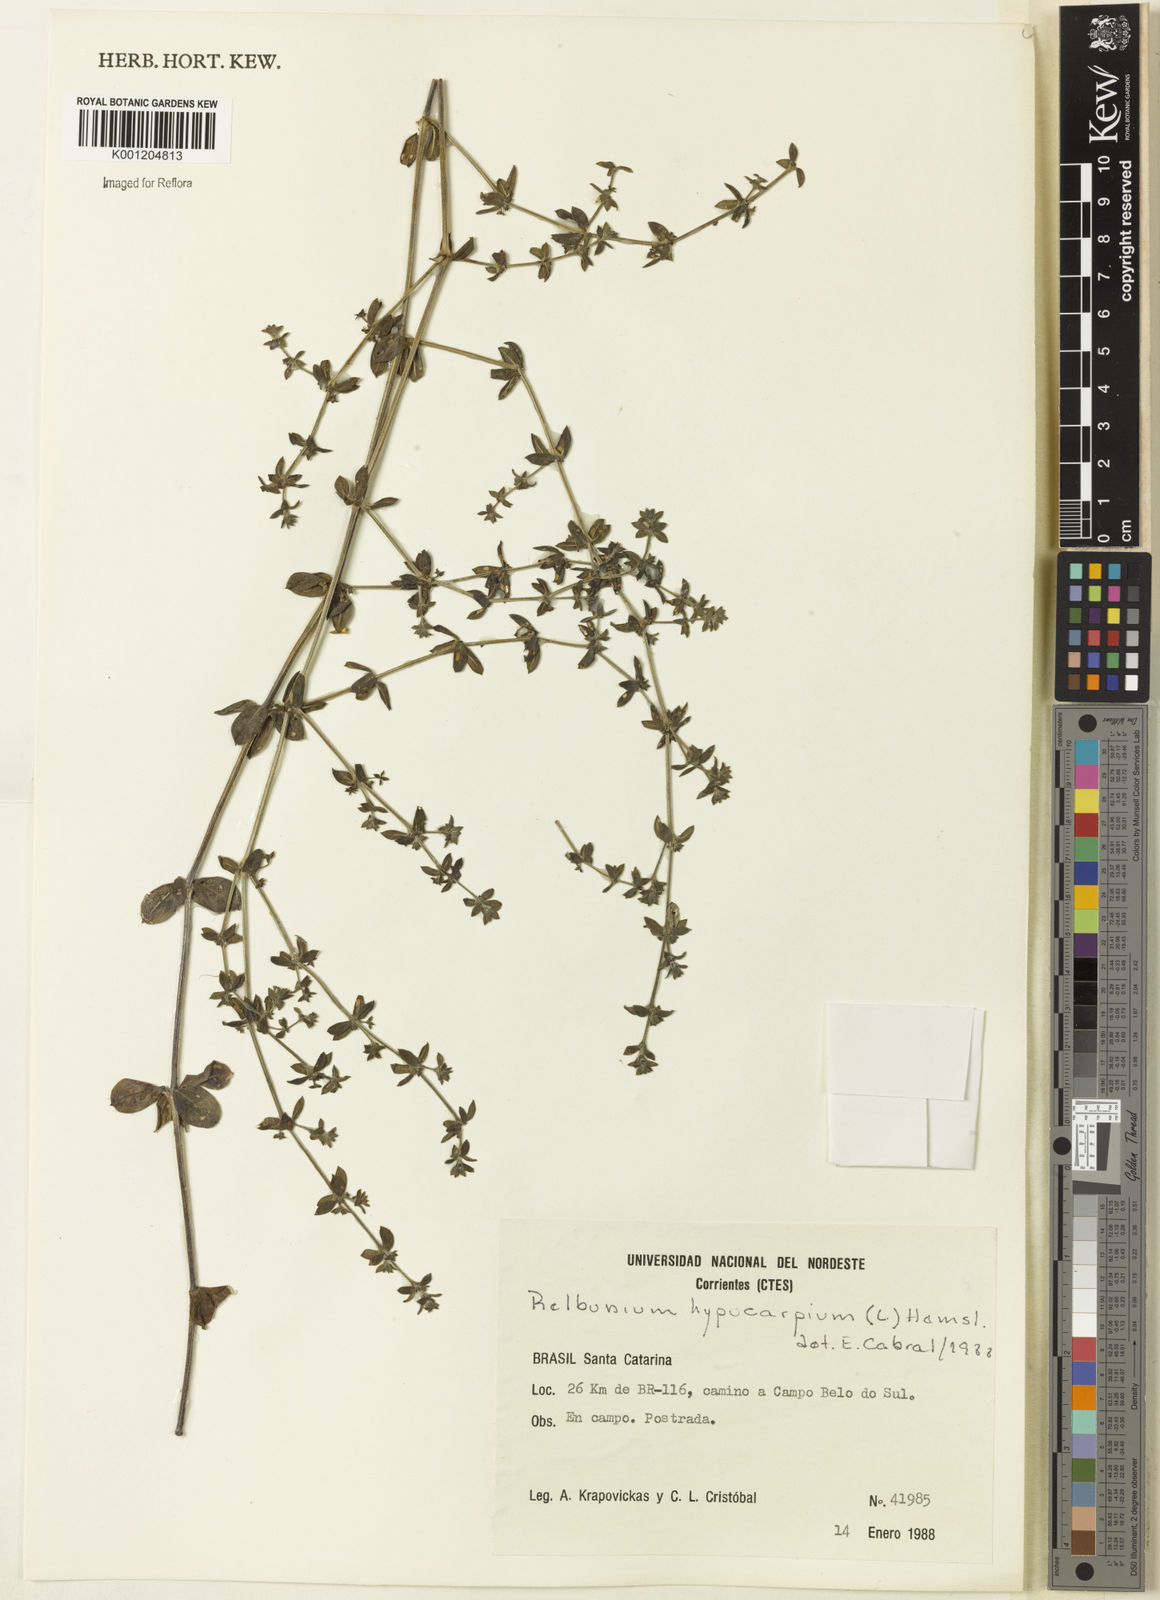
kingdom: Plantae
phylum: Tracheophyta
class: Magnoliopsida
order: Gentianales
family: Rubiaceae
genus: Galium
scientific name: Galium hypocarpium
